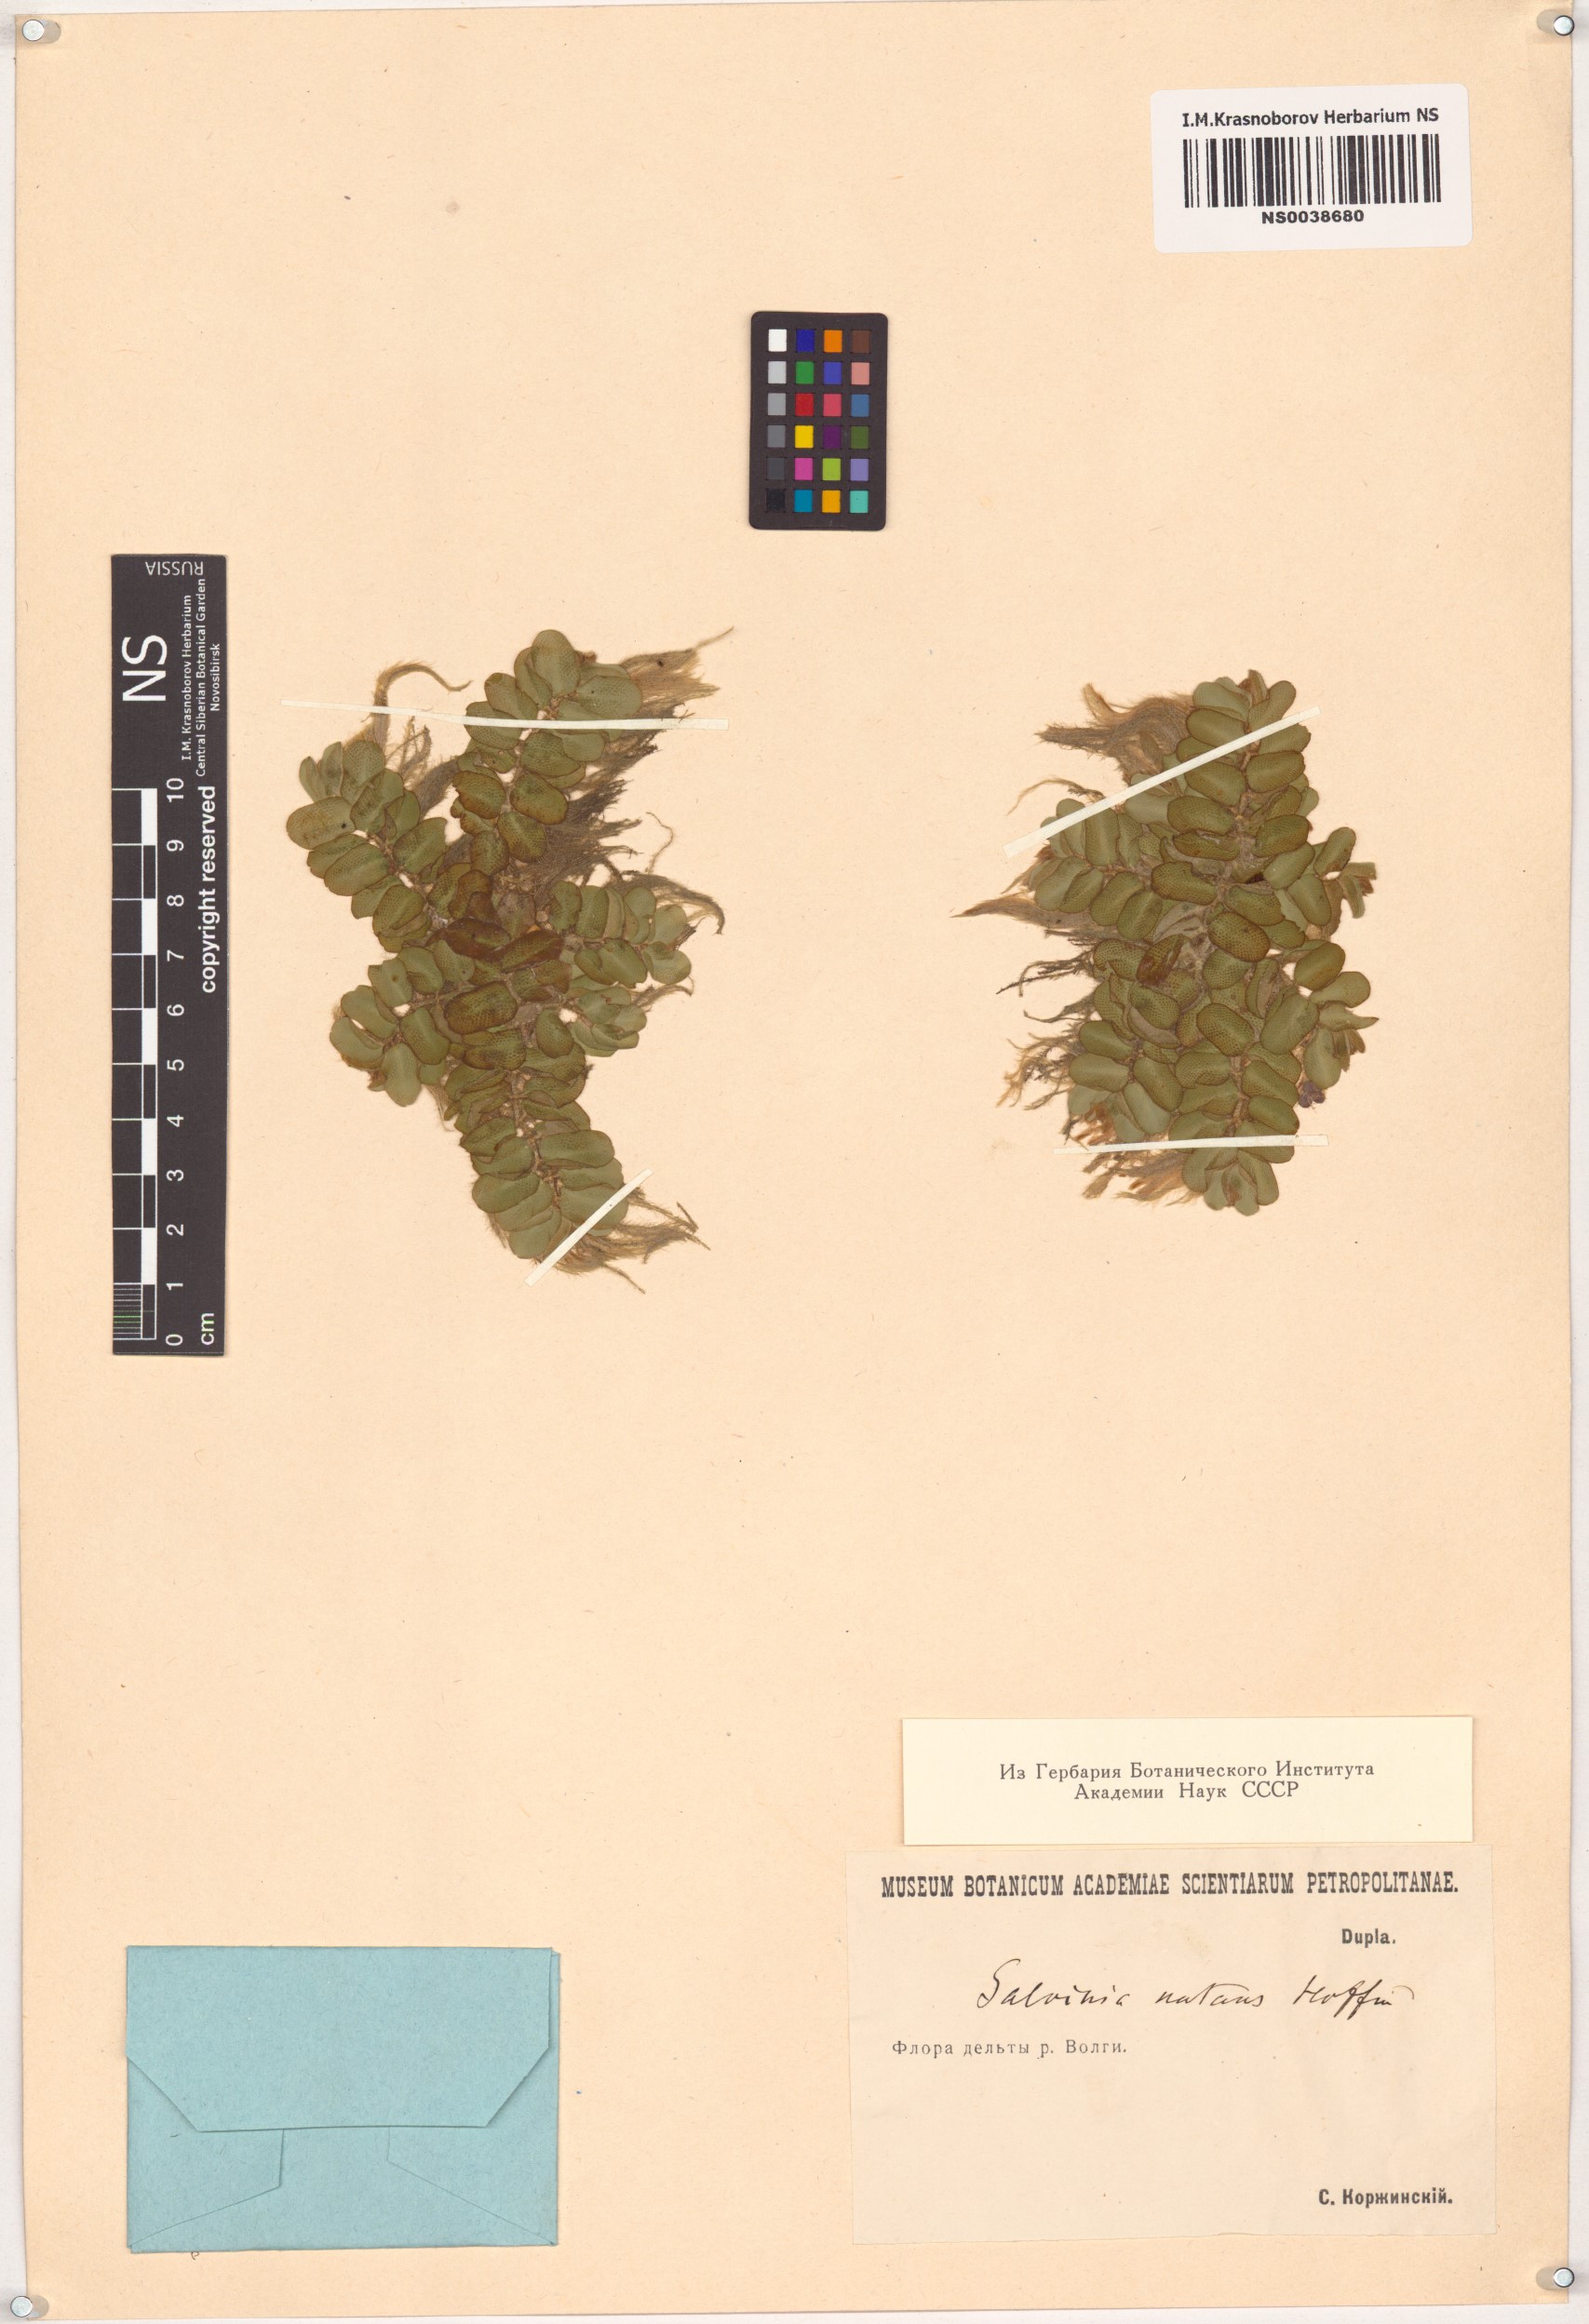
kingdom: Plantae
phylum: Tracheophyta
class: Polypodiopsida
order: Salviniales
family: Salviniaceae
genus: Salvinia
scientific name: Salvinia natans
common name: Floating fern
